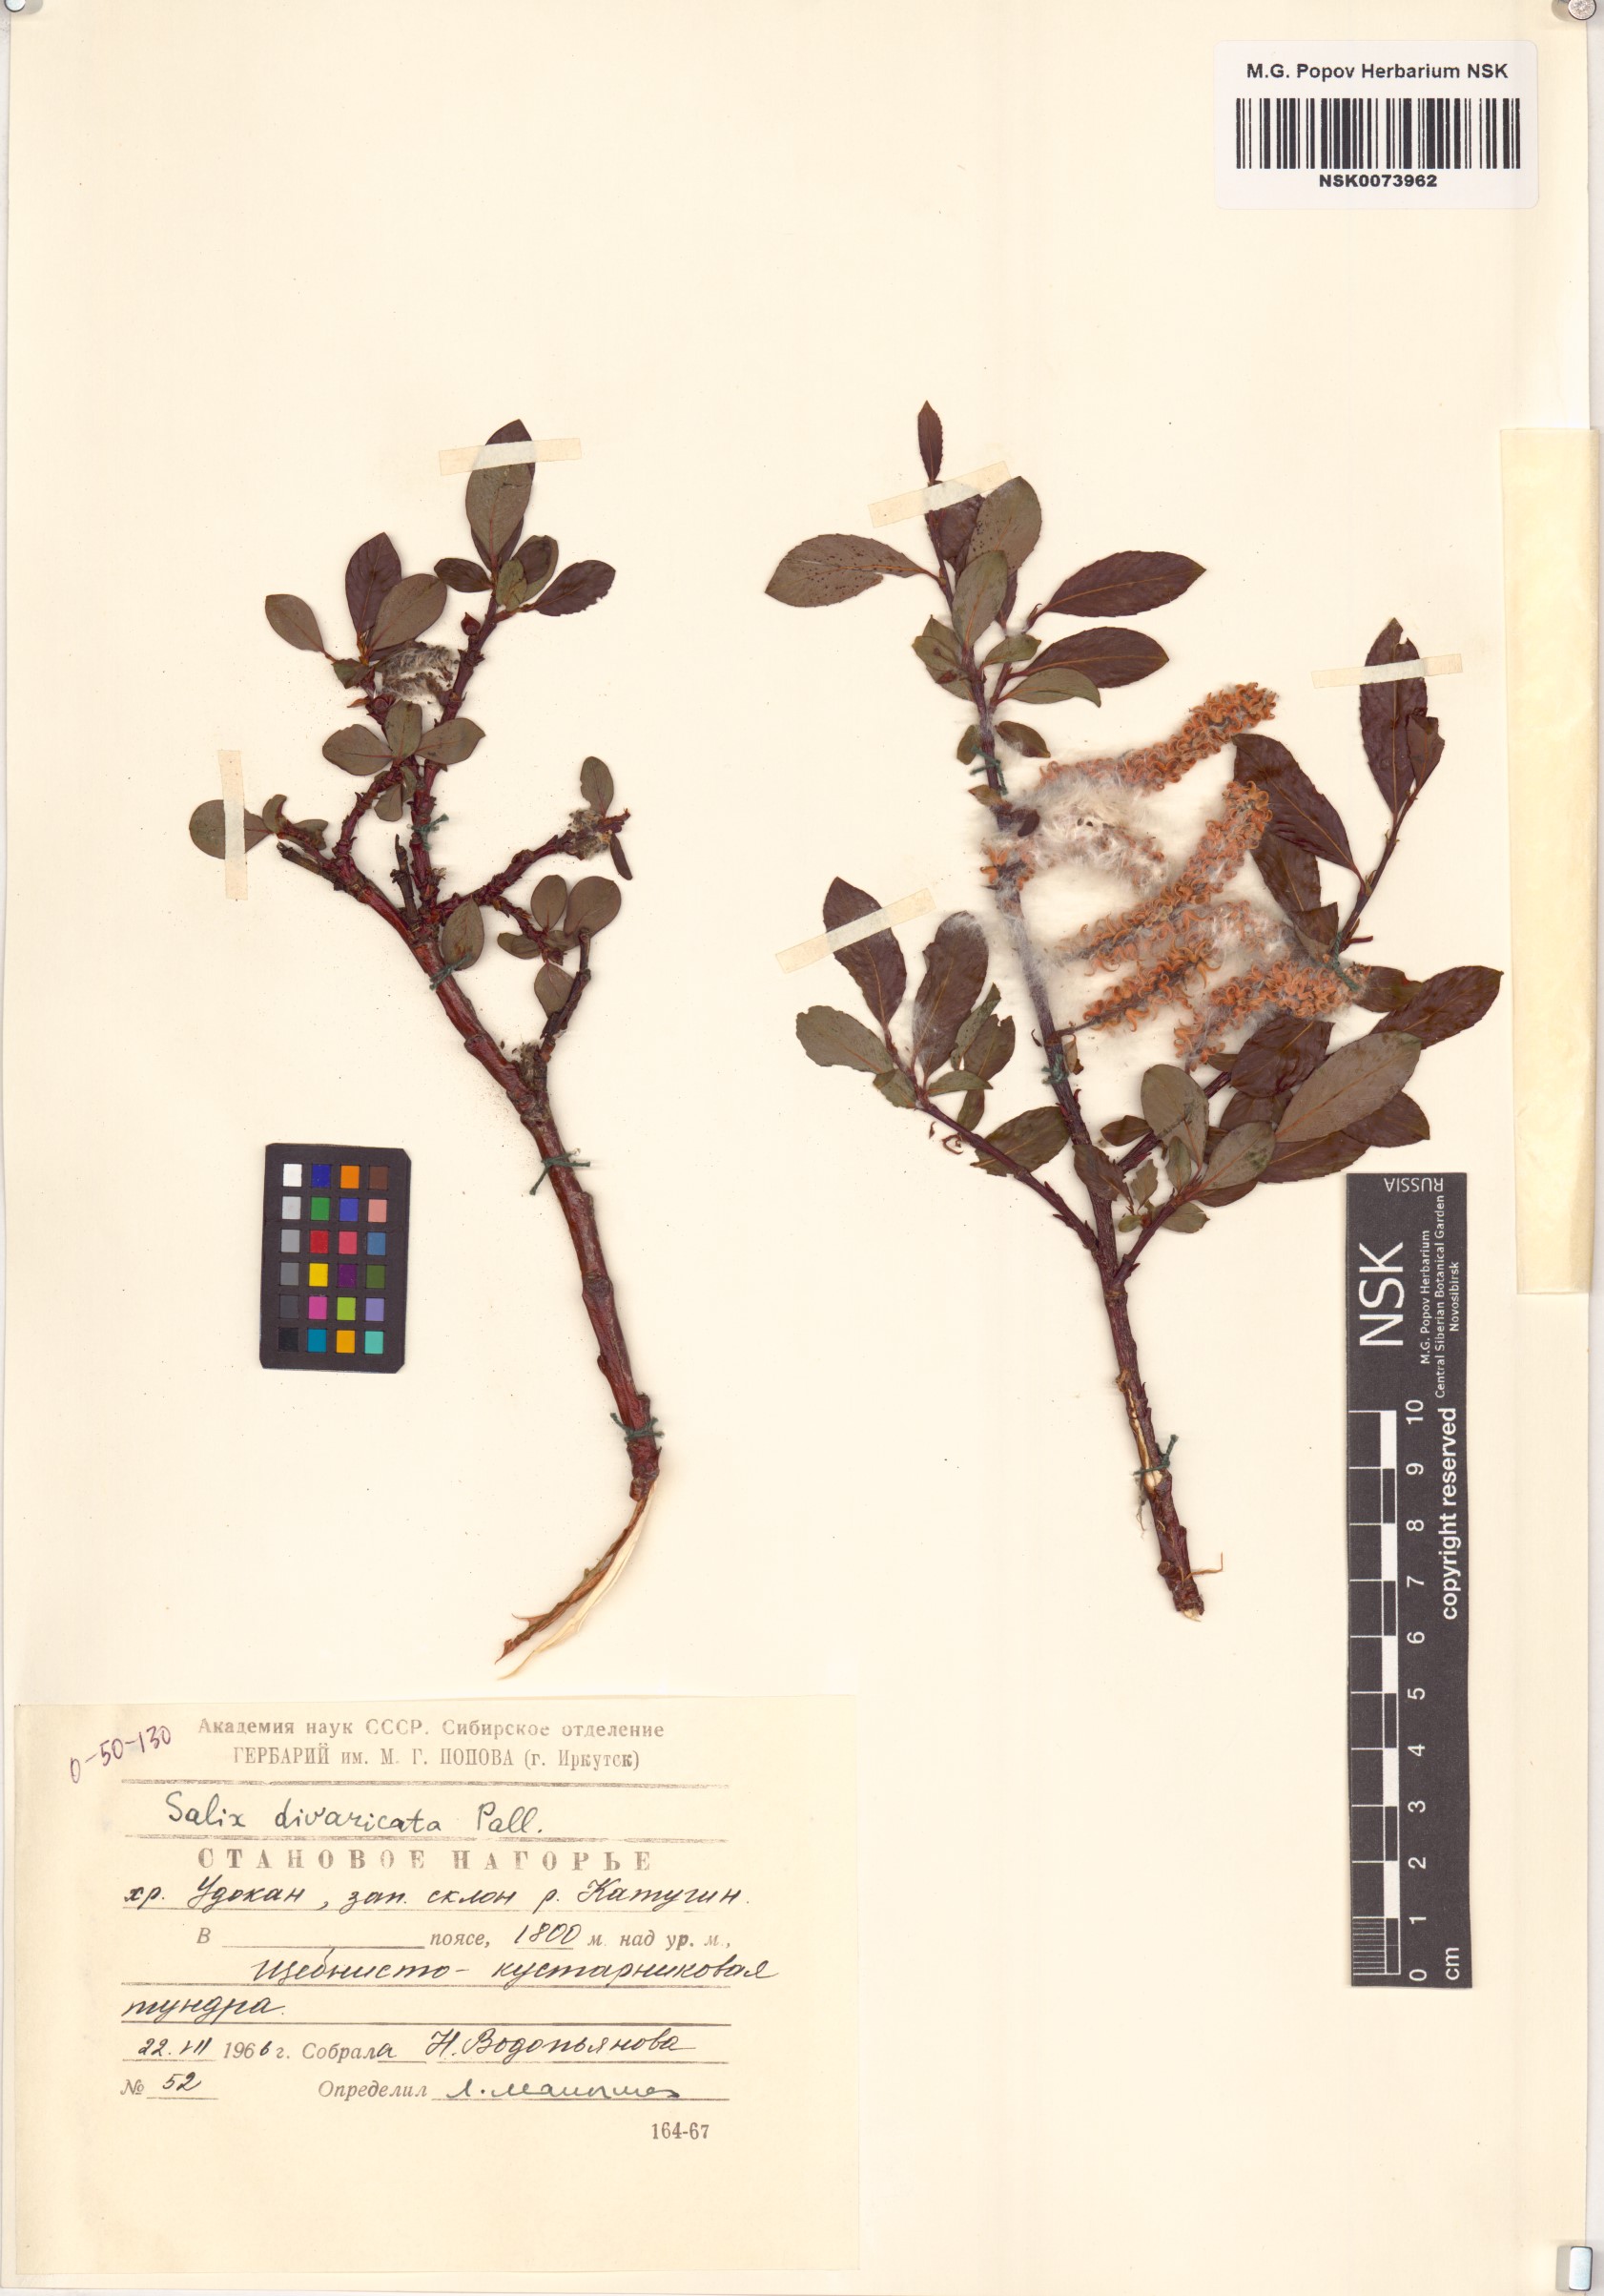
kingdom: Plantae
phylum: Tracheophyta
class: Magnoliopsida
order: Malpighiales
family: Salicaceae
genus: Salix
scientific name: Salix divaricata
